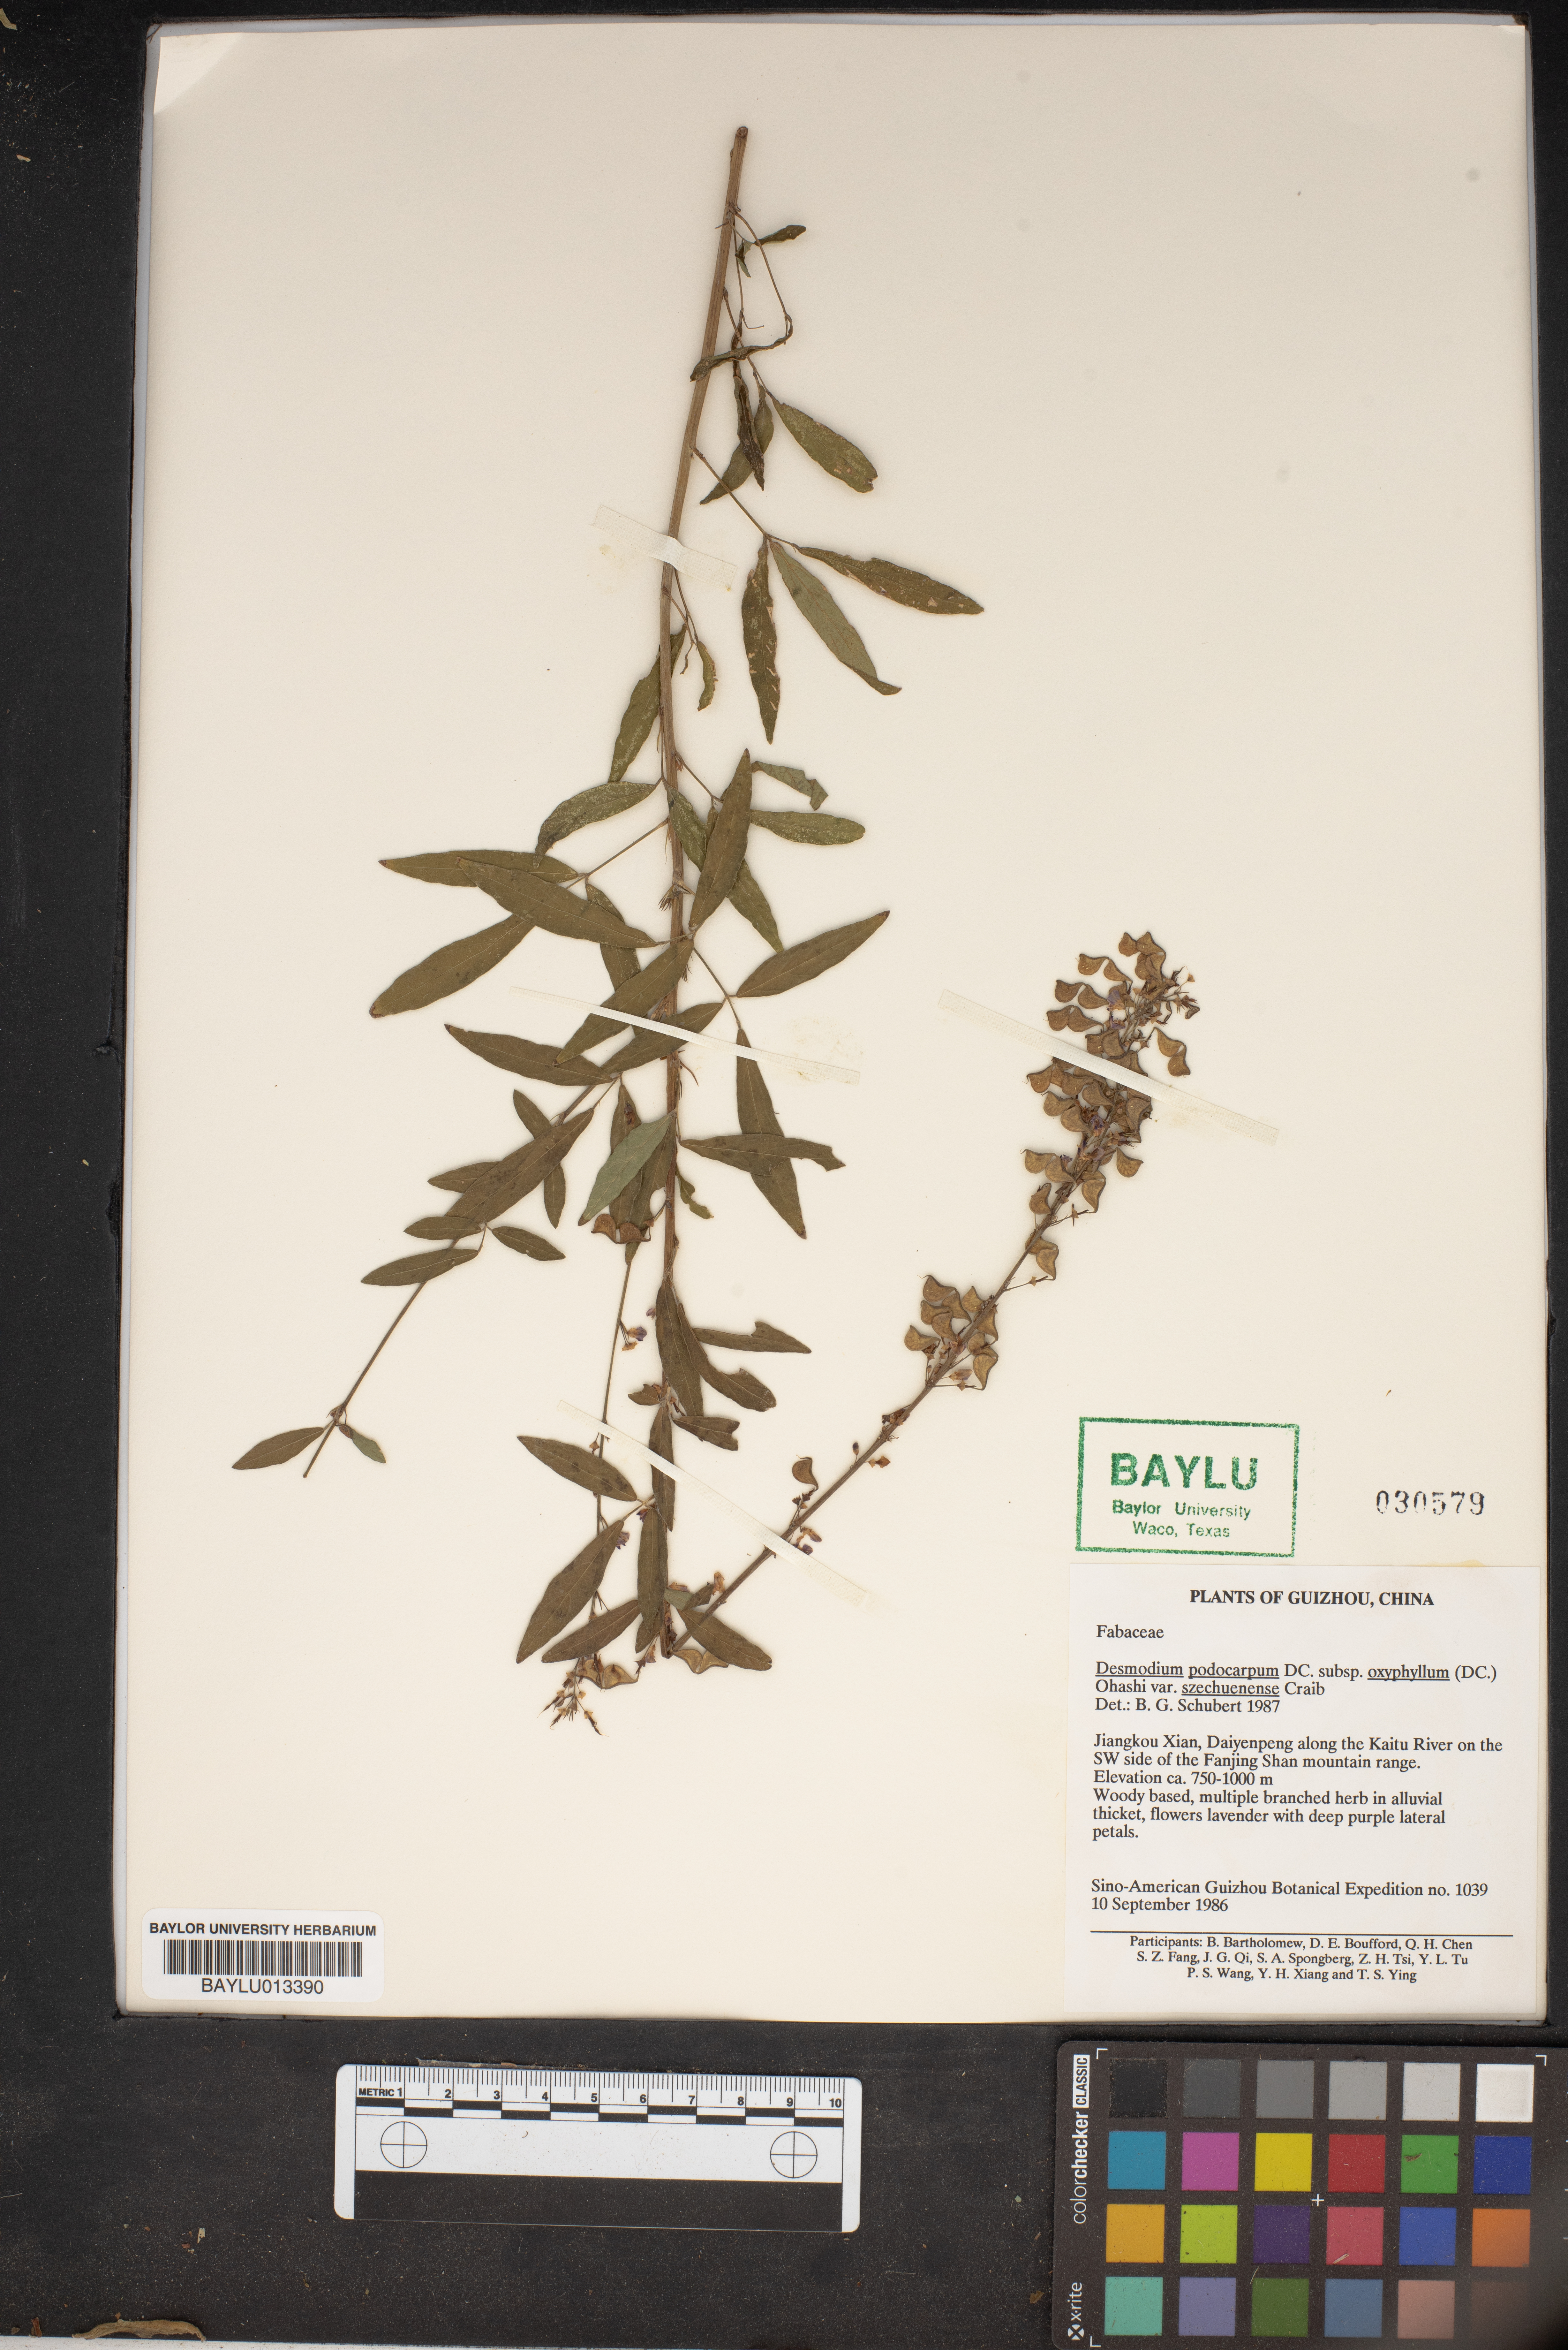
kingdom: Plantae
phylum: Tracheophyta
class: Magnoliopsida
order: Fabales
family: Fabaceae
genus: Hylodesmum
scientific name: Hylodesmum podocarpum
